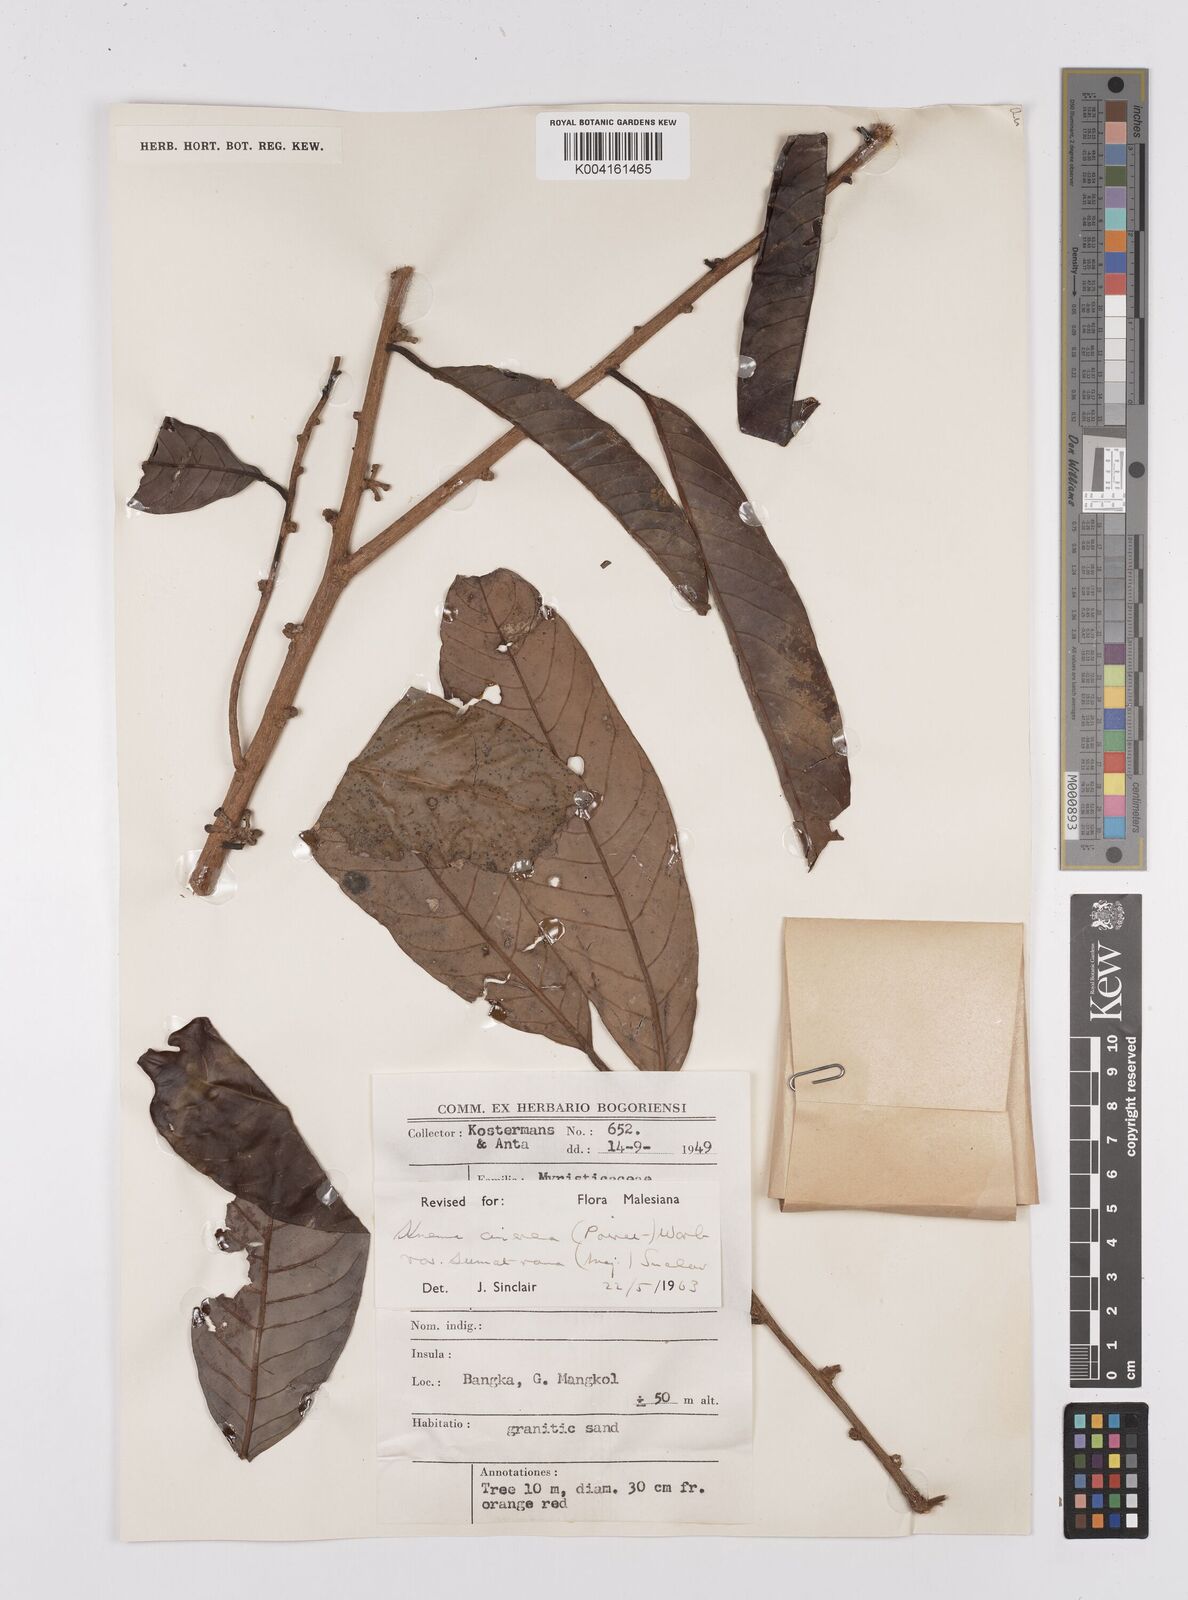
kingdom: Plantae
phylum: Tracheophyta
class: Magnoliopsida
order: Magnoliales
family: Myristicaceae
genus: Knema
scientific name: Knema
